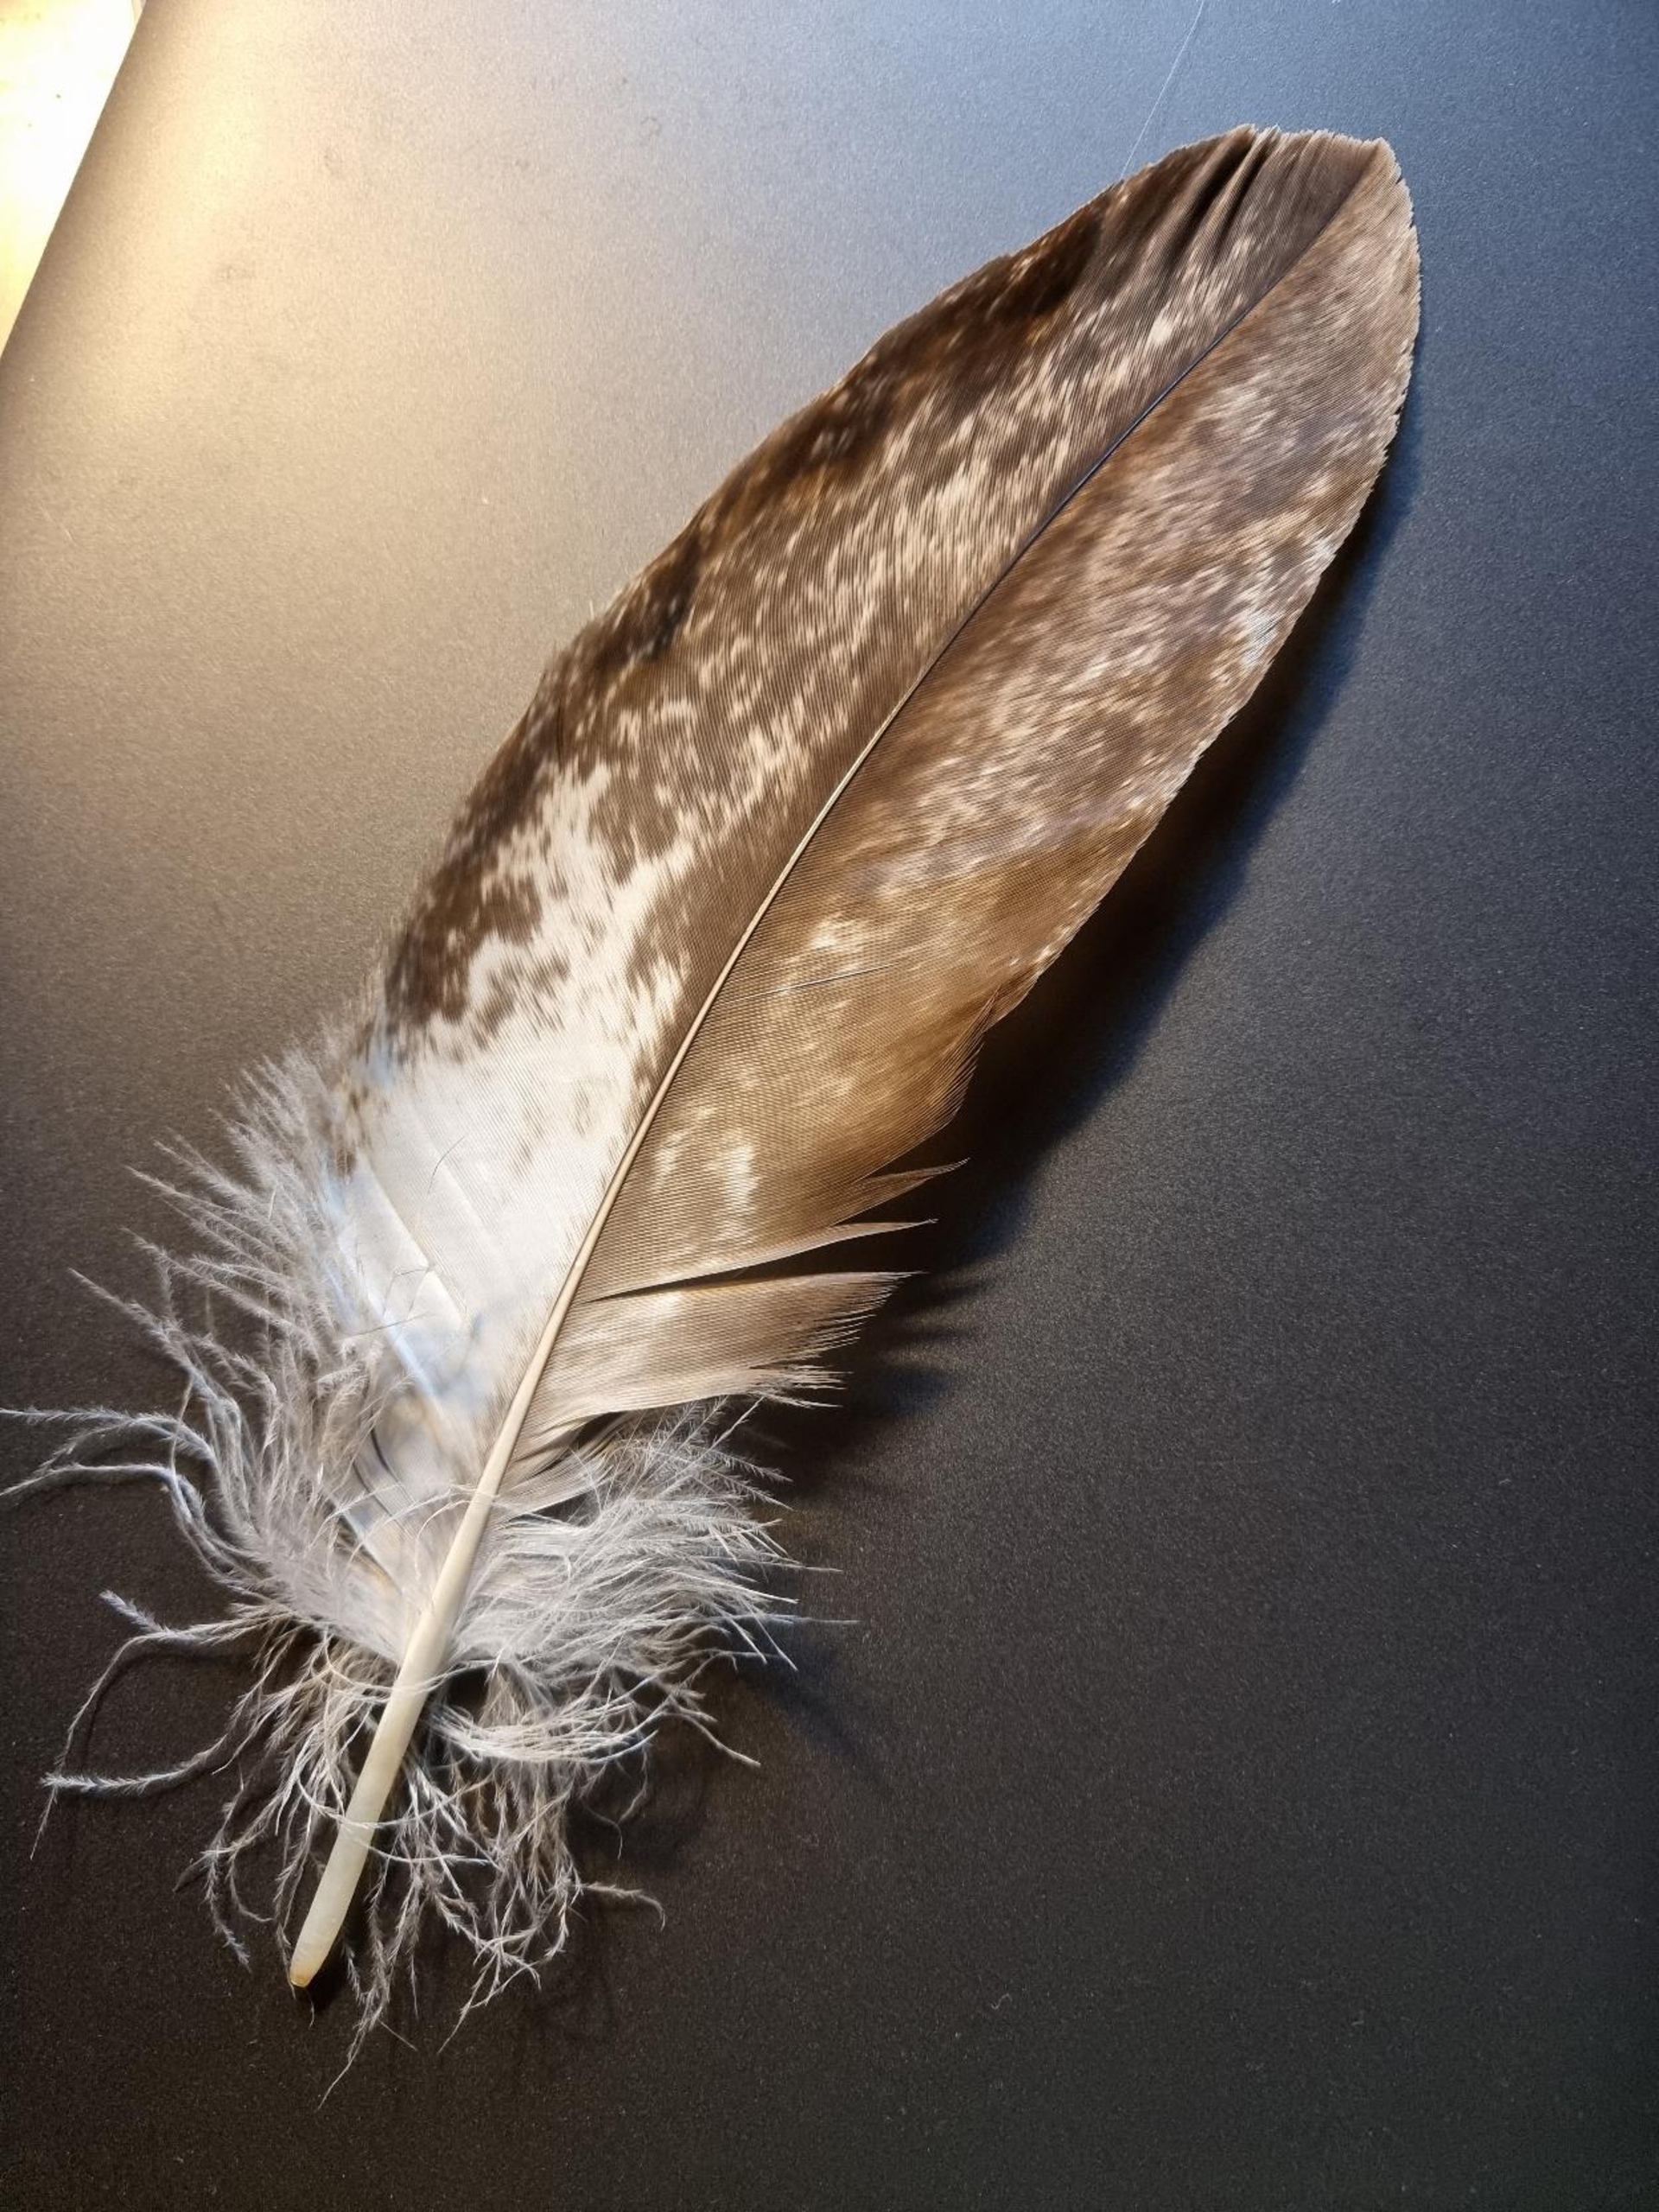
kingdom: Animalia
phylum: Chordata
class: Aves
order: Accipitriformes
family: Accipitridae
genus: Haliaeetus
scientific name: Haliaeetus albicilla
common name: Havørn
